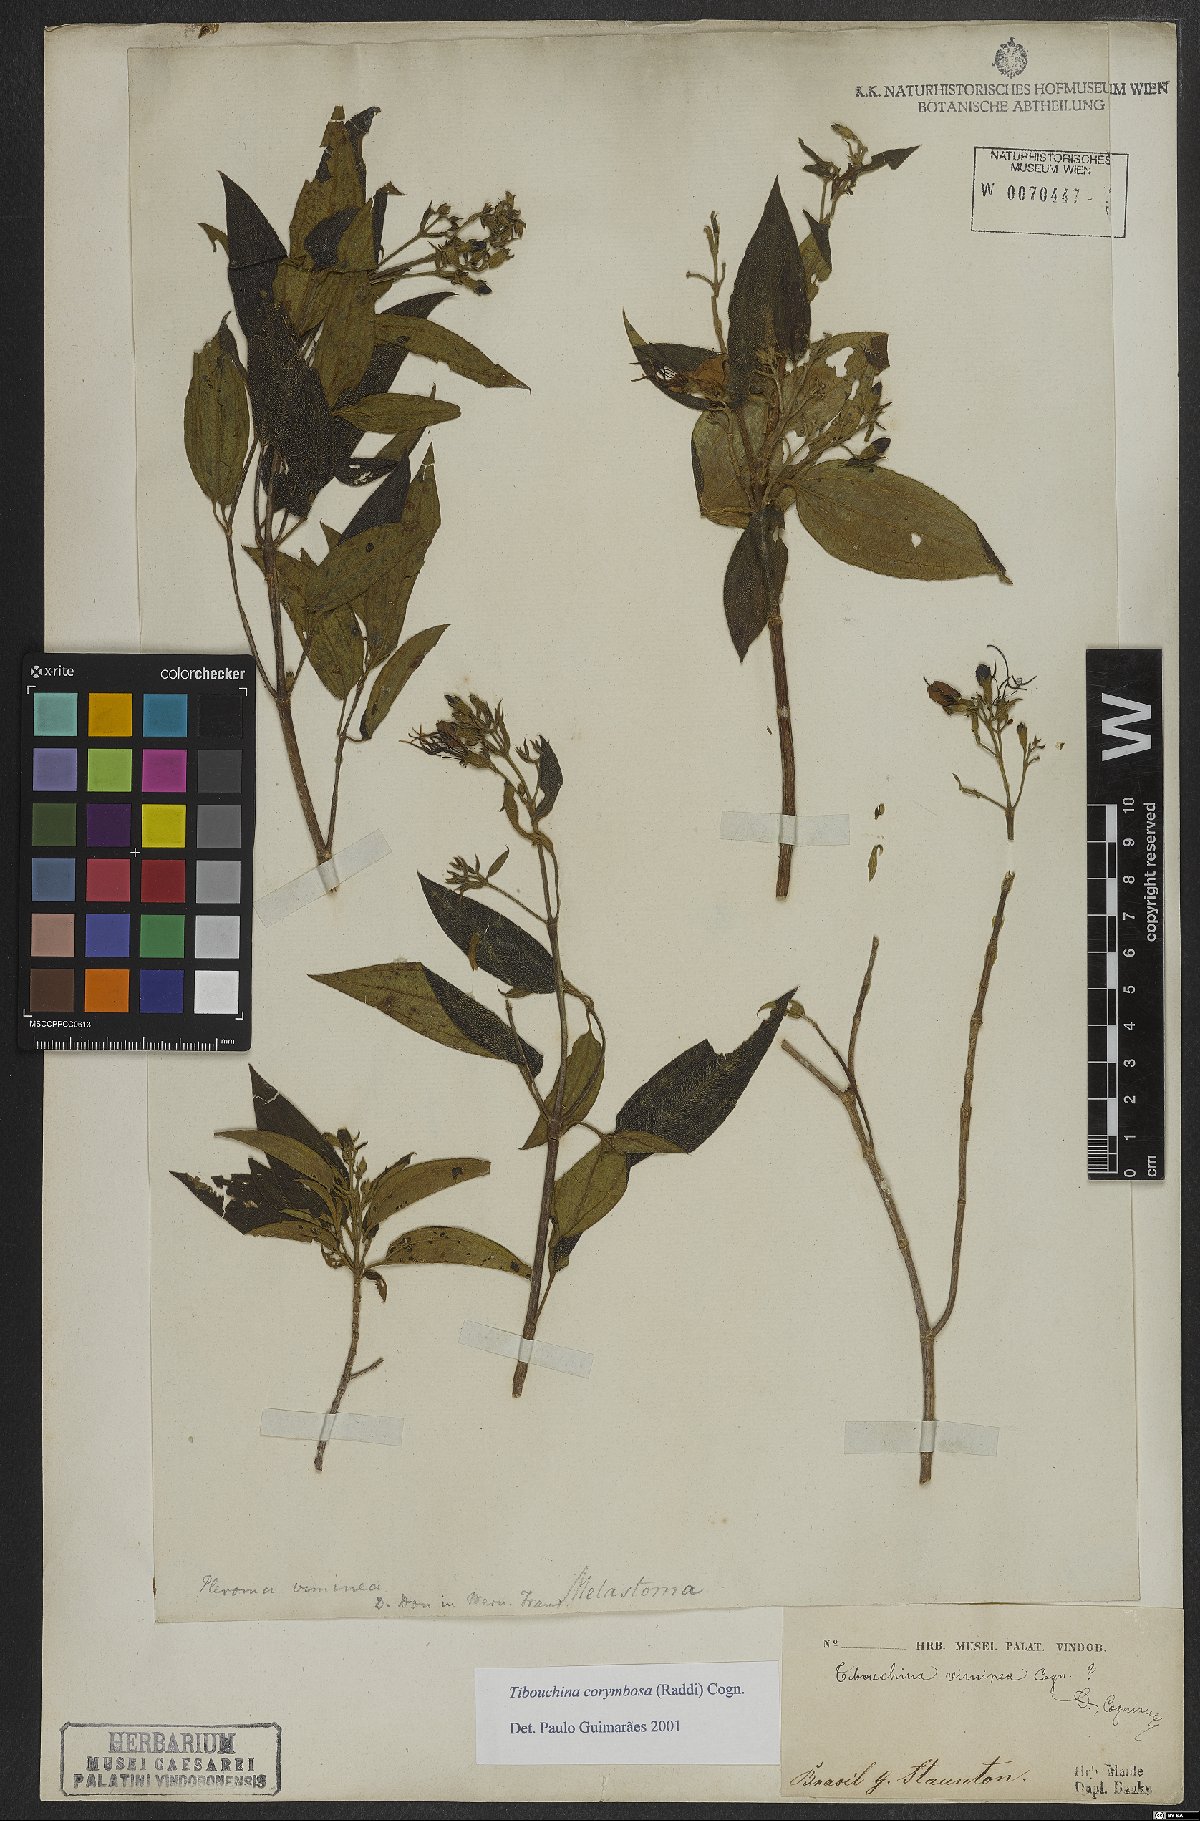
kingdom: Plantae
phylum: Tracheophyta
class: Magnoliopsida
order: Myrtales
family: Melastomataceae
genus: Pleroma
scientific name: Pleroma vimineum
